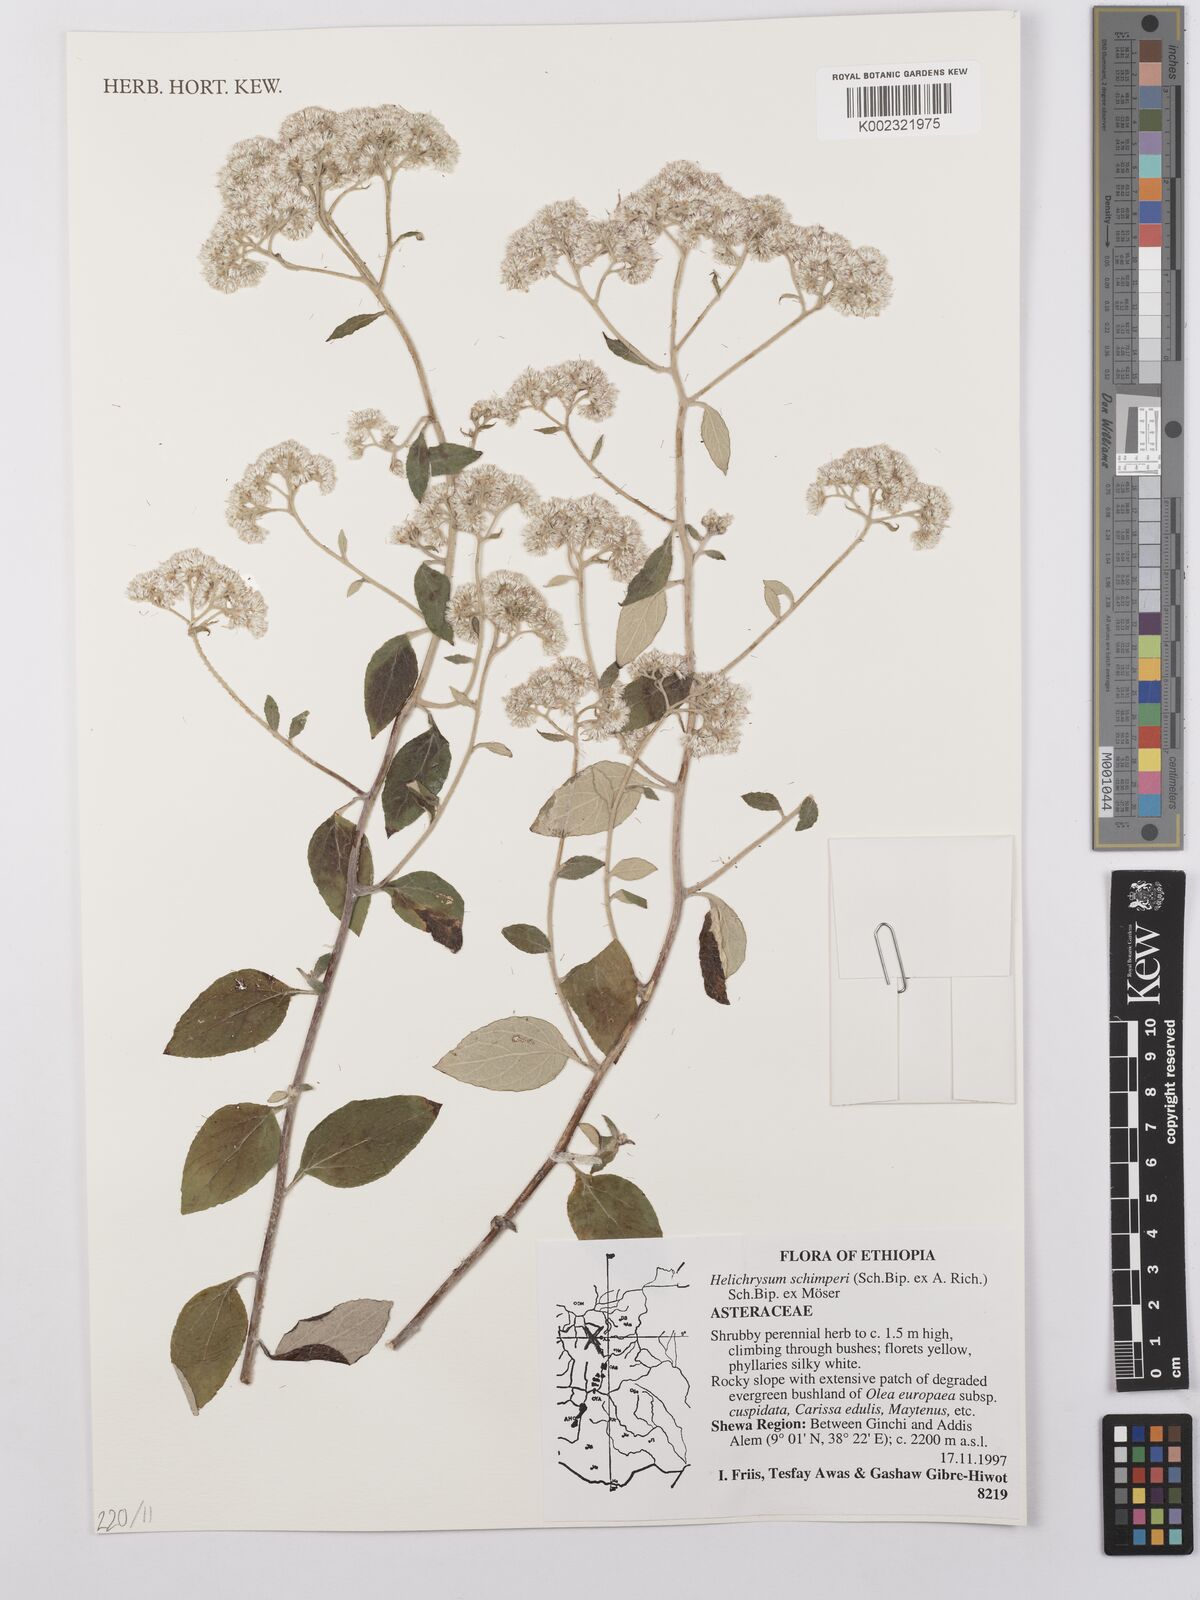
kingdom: Plantae
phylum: Tracheophyta
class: Magnoliopsida
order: Asterales
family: Asteraceae
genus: Helichrysum
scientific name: Helichrysum schimperi
